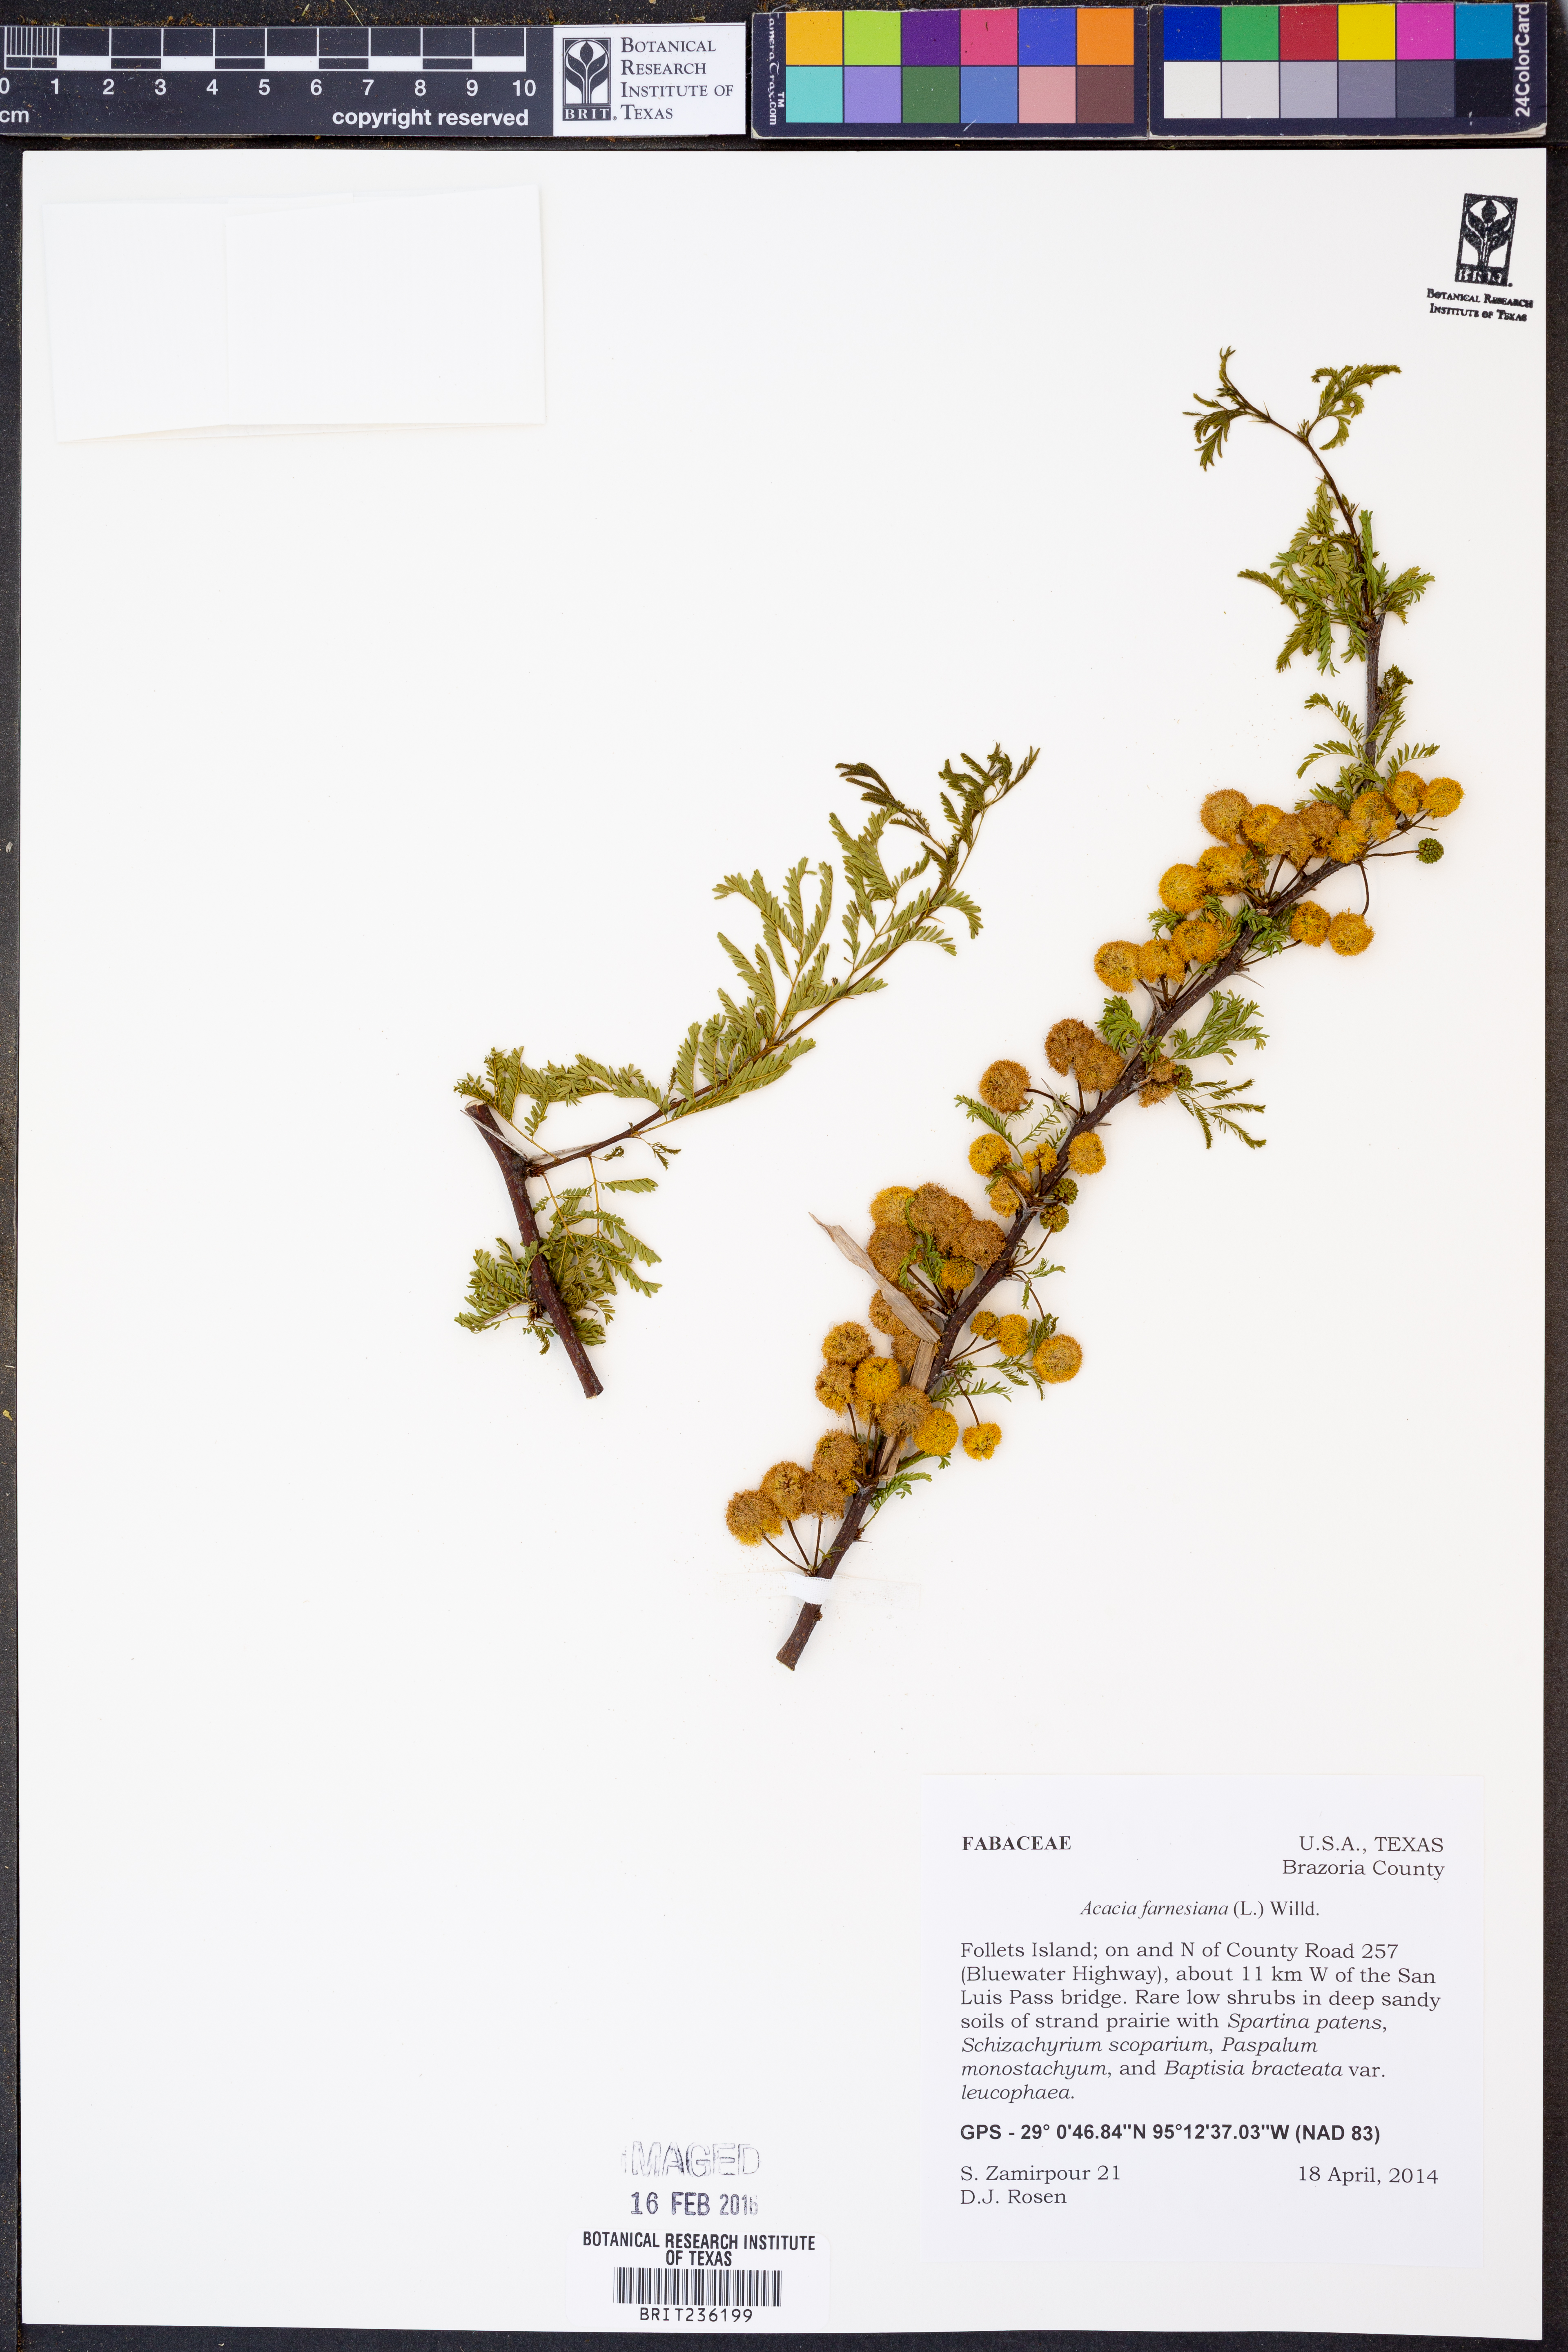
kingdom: Plantae
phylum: Tracheophyta
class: Magnoliopsida
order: Fabales
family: Fabaceae
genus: Vachellia
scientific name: Vachellia farnesiana
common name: Sweet acacia
